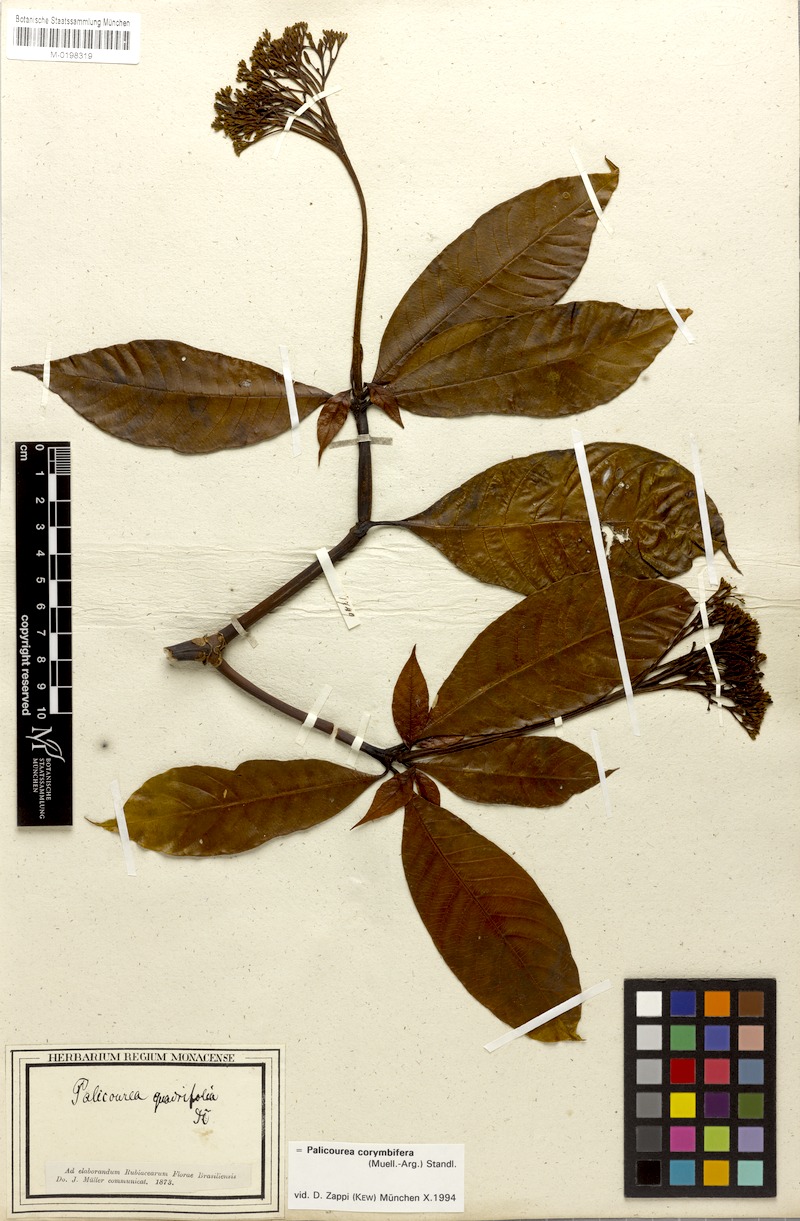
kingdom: Plantae
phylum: Tracheophyta
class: Magnoliopsida
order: Gentianales
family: Rubiaceae
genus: Palicourea
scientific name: Palicourea corymbifera
